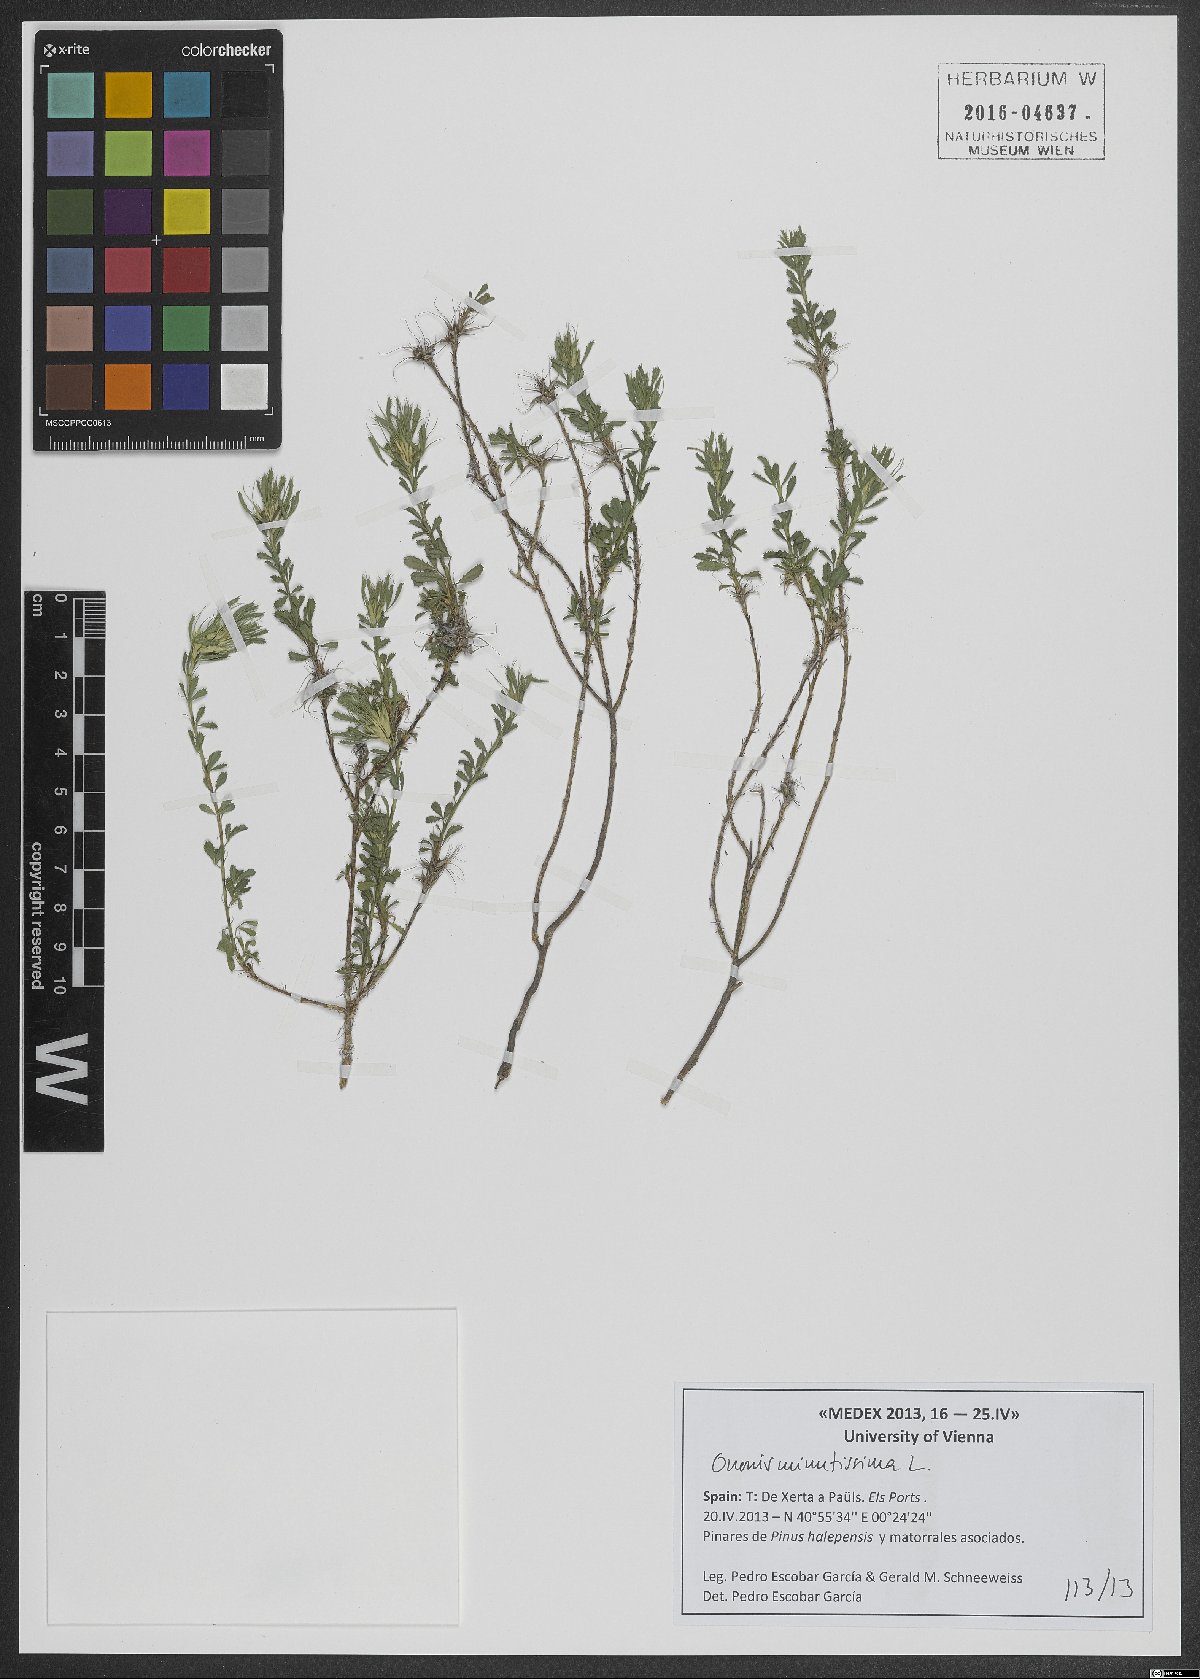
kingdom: Plantae
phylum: Tracheophyta
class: Magnoliopsida
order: Fabales
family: Fabaceae
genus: Ononis
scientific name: Ononis minutissima
